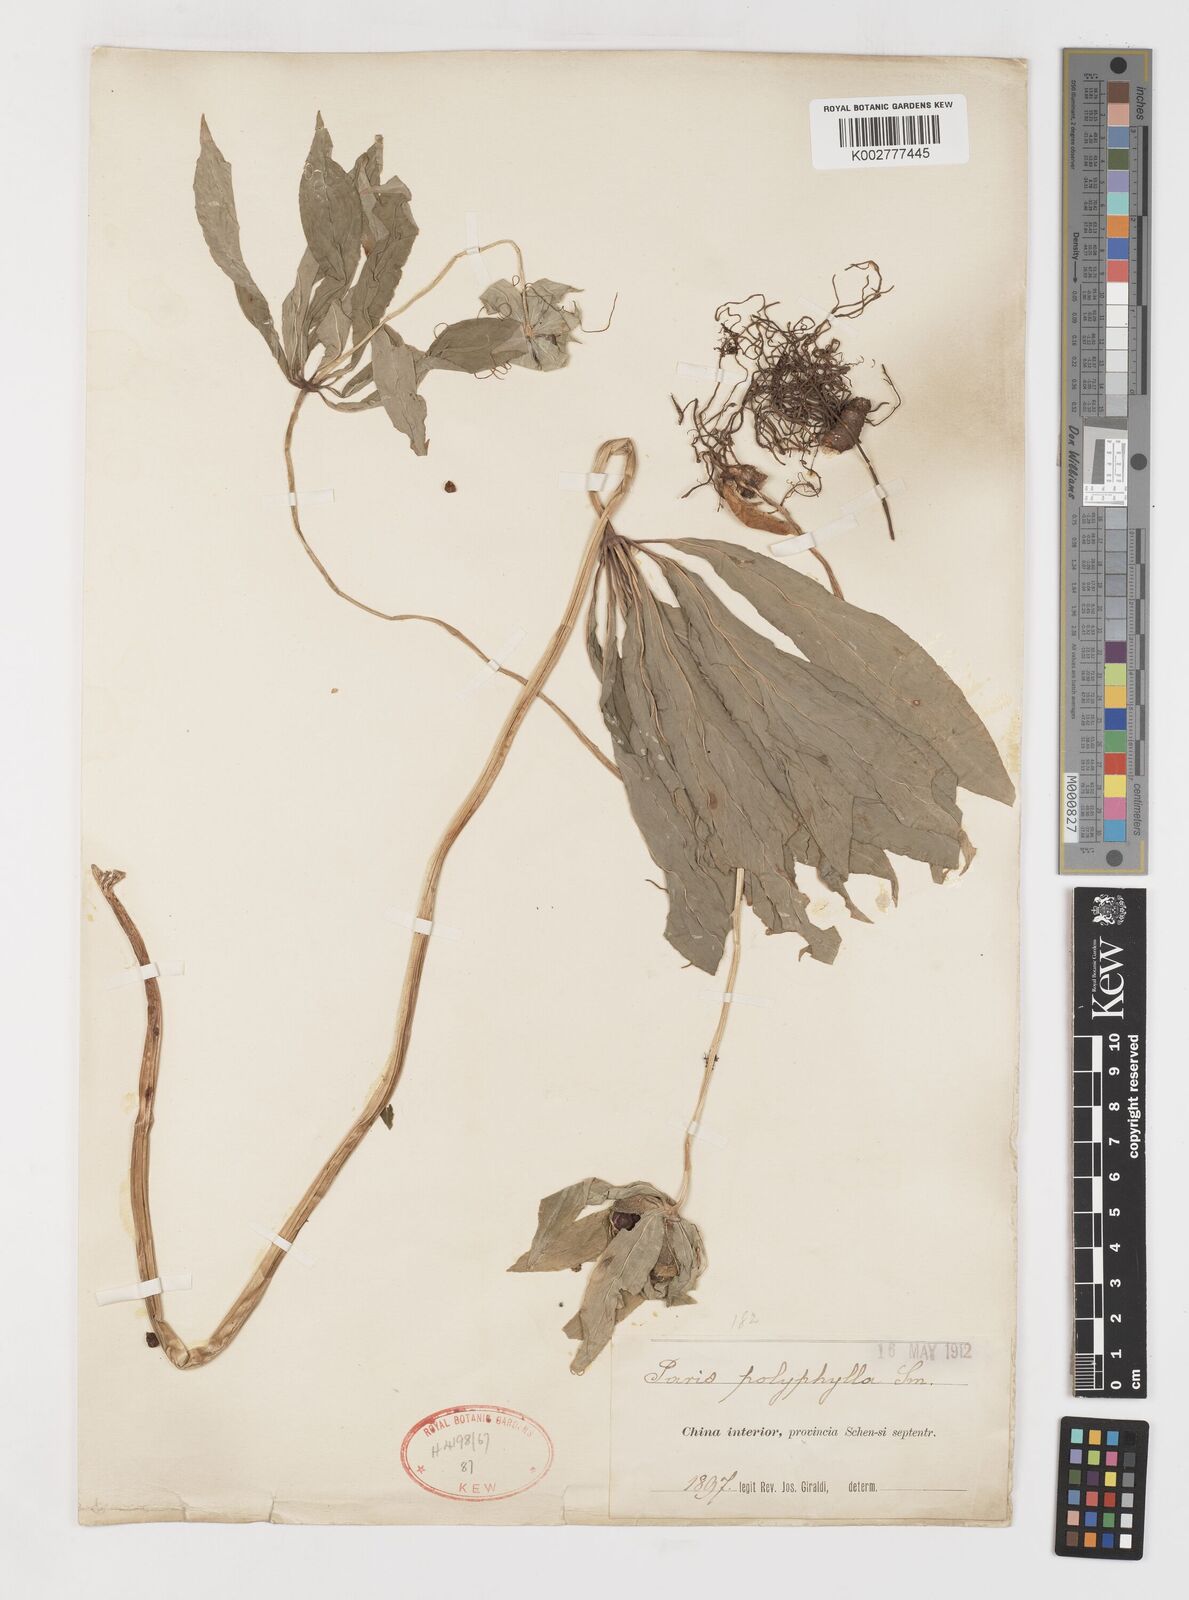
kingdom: Plantae
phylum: Tracheophyta
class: Liliopsida
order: Liliales
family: Melanthiaceae
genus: Paris
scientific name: Paris polyphylla
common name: Love apple
